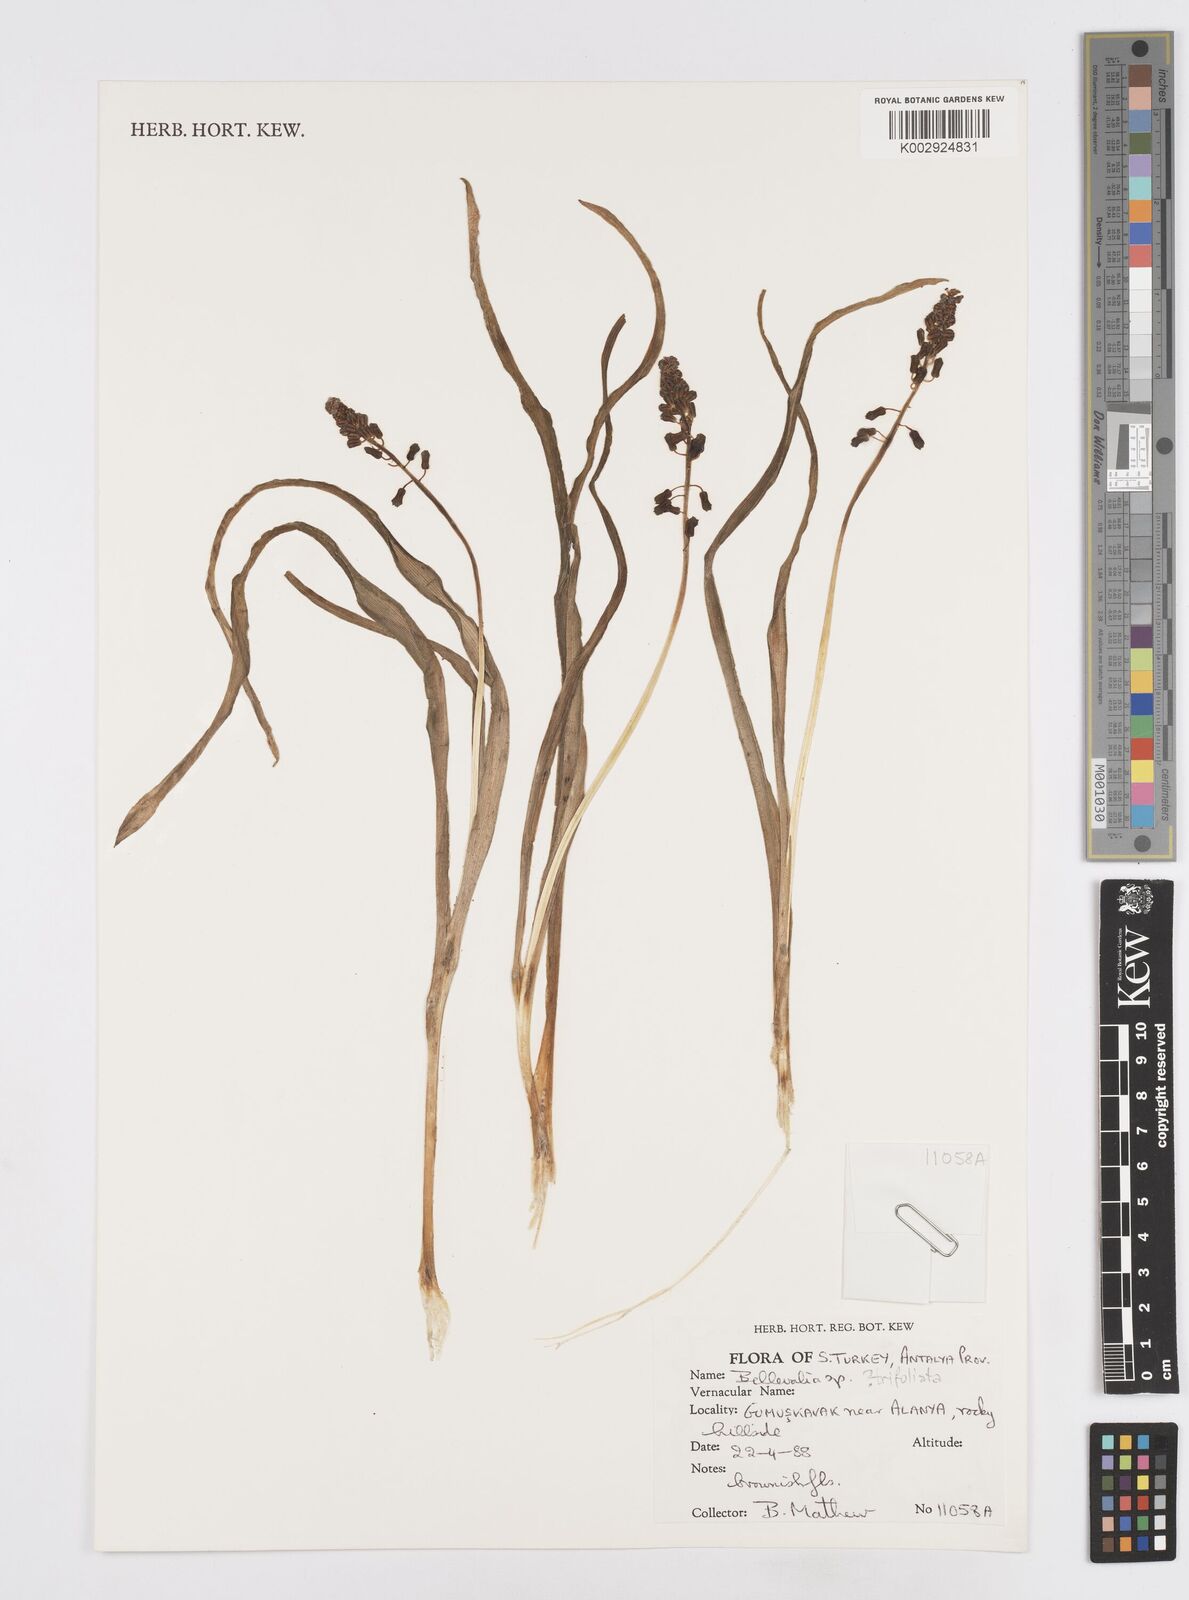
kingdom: Plantae
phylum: Tracheophyta
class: Liliopsida
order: Asparagales
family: Asparagaceae
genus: Bellevalia
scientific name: Bellevalia
